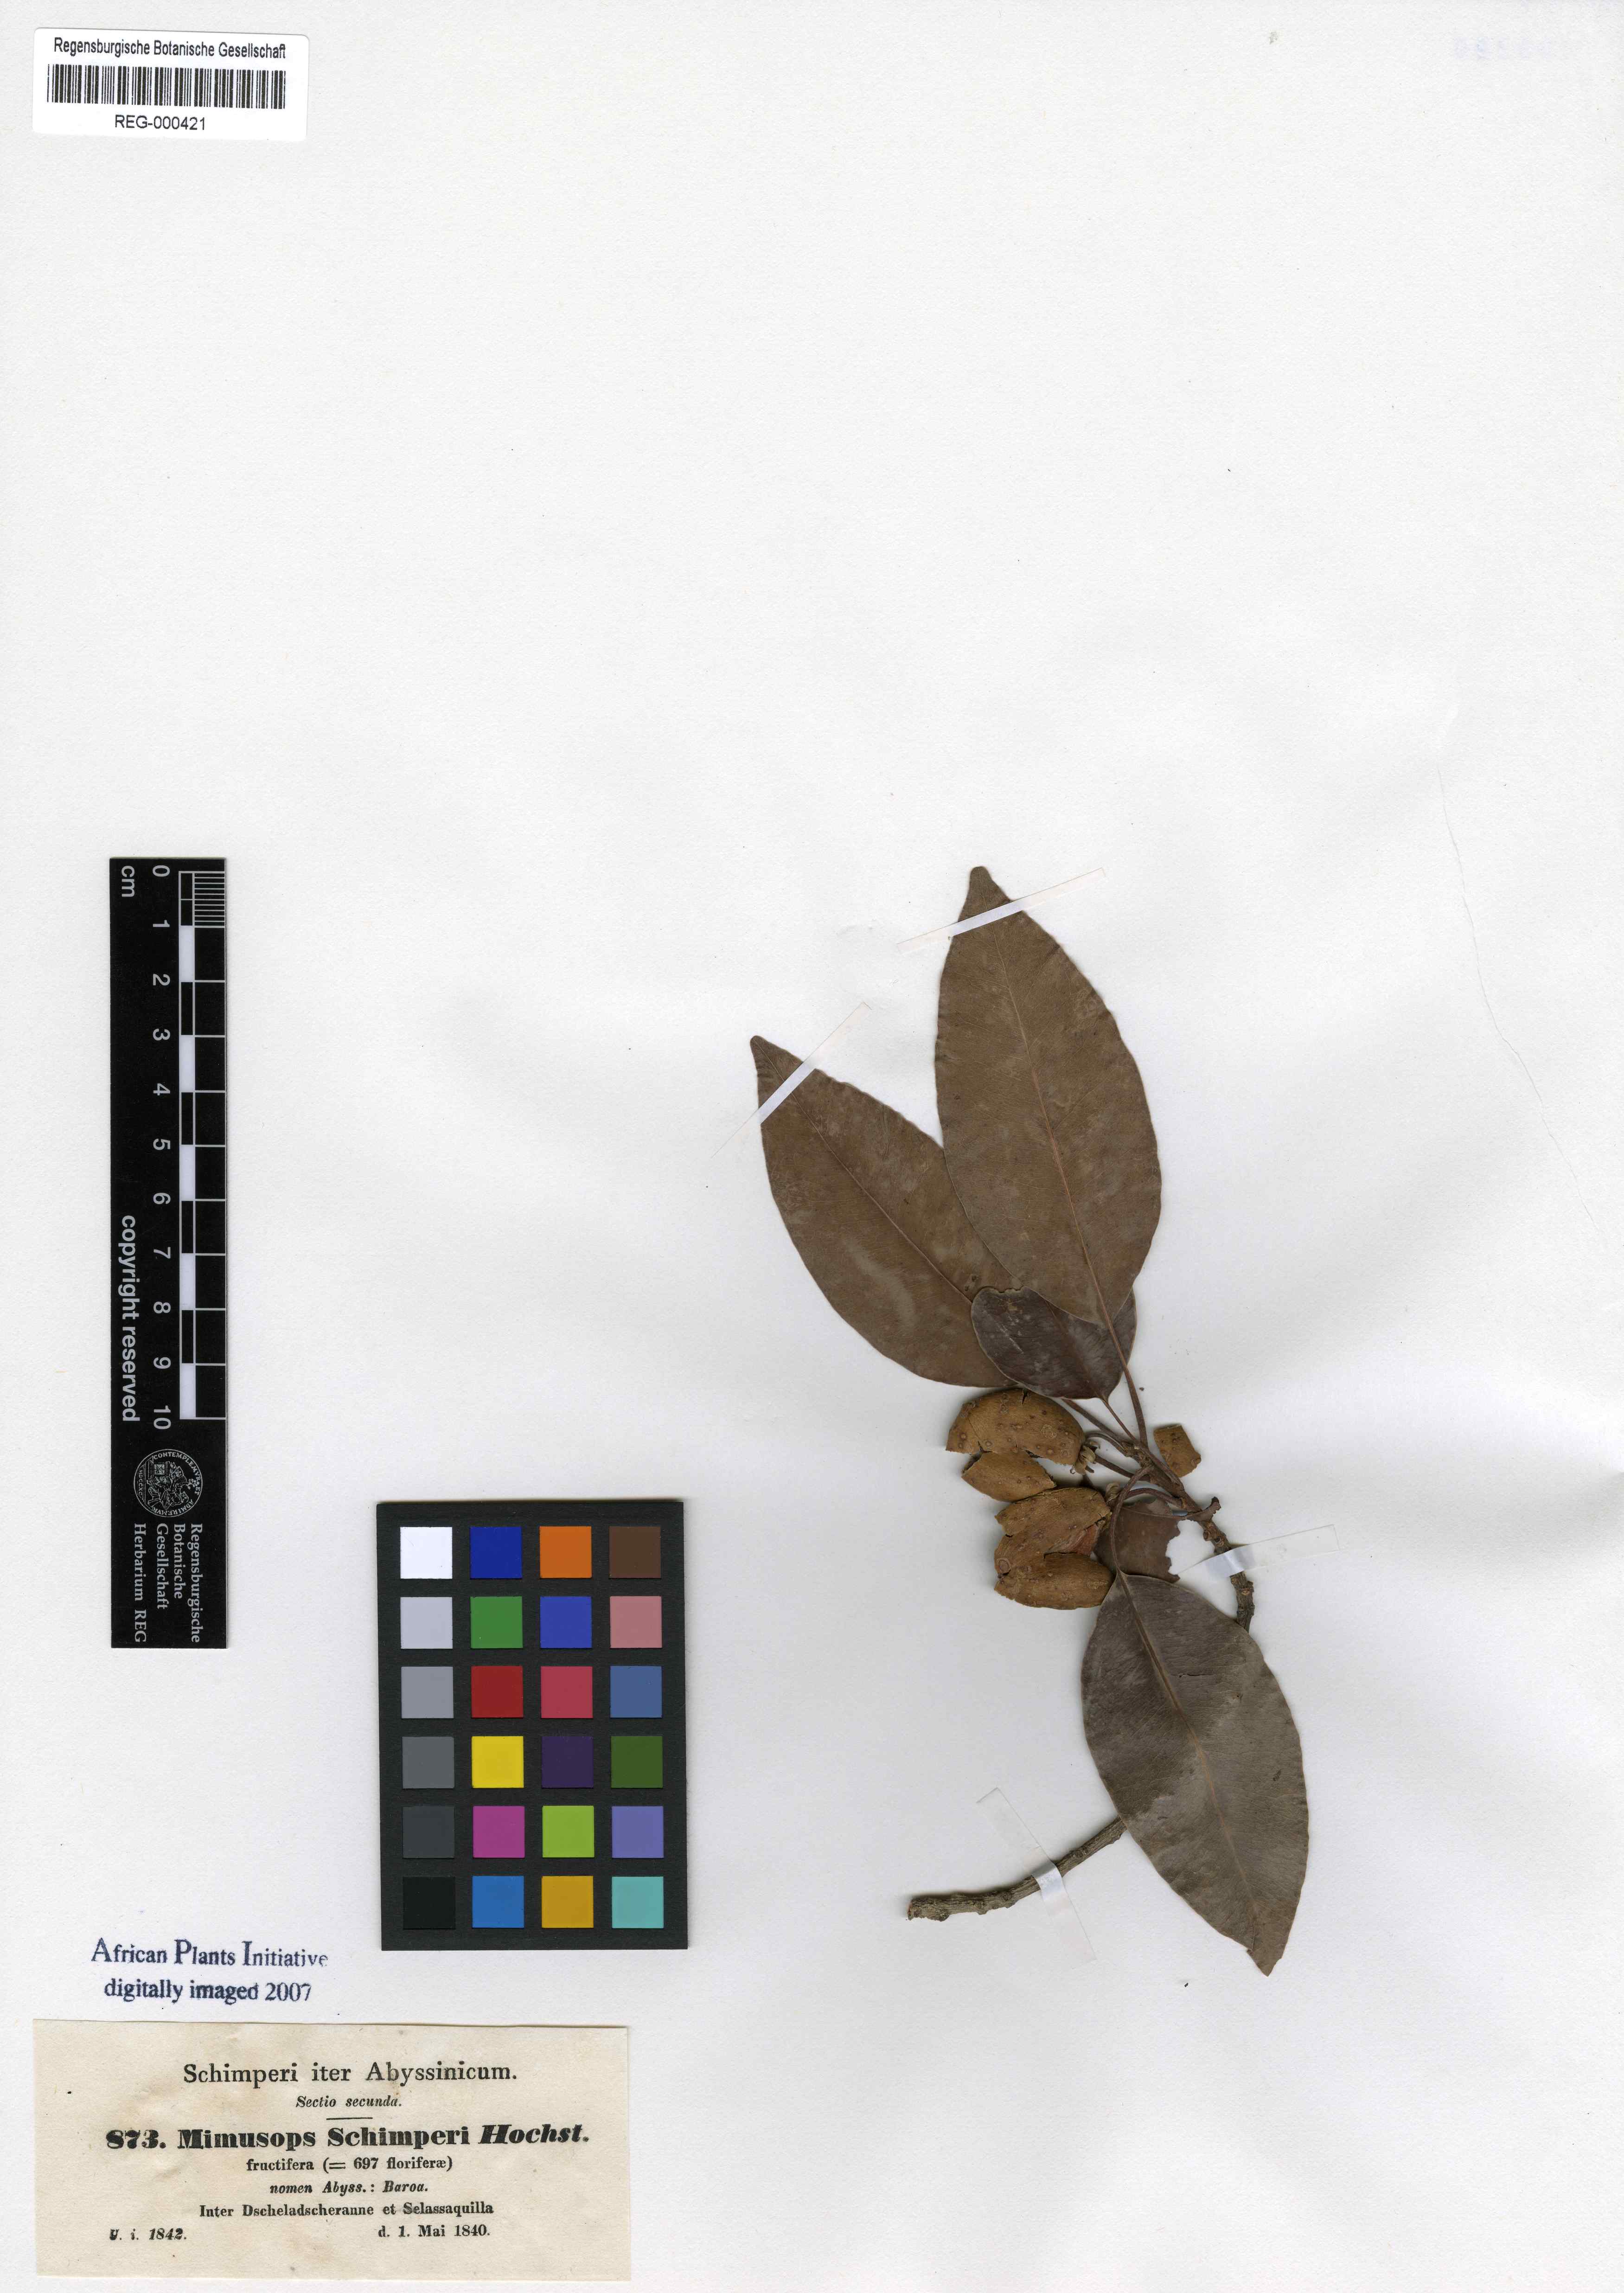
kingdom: Plantae
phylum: Tracheophyta
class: Magnoliopsida
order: Ericales
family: Sapotaceae
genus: Mimusops
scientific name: Mimusops laurifolia
